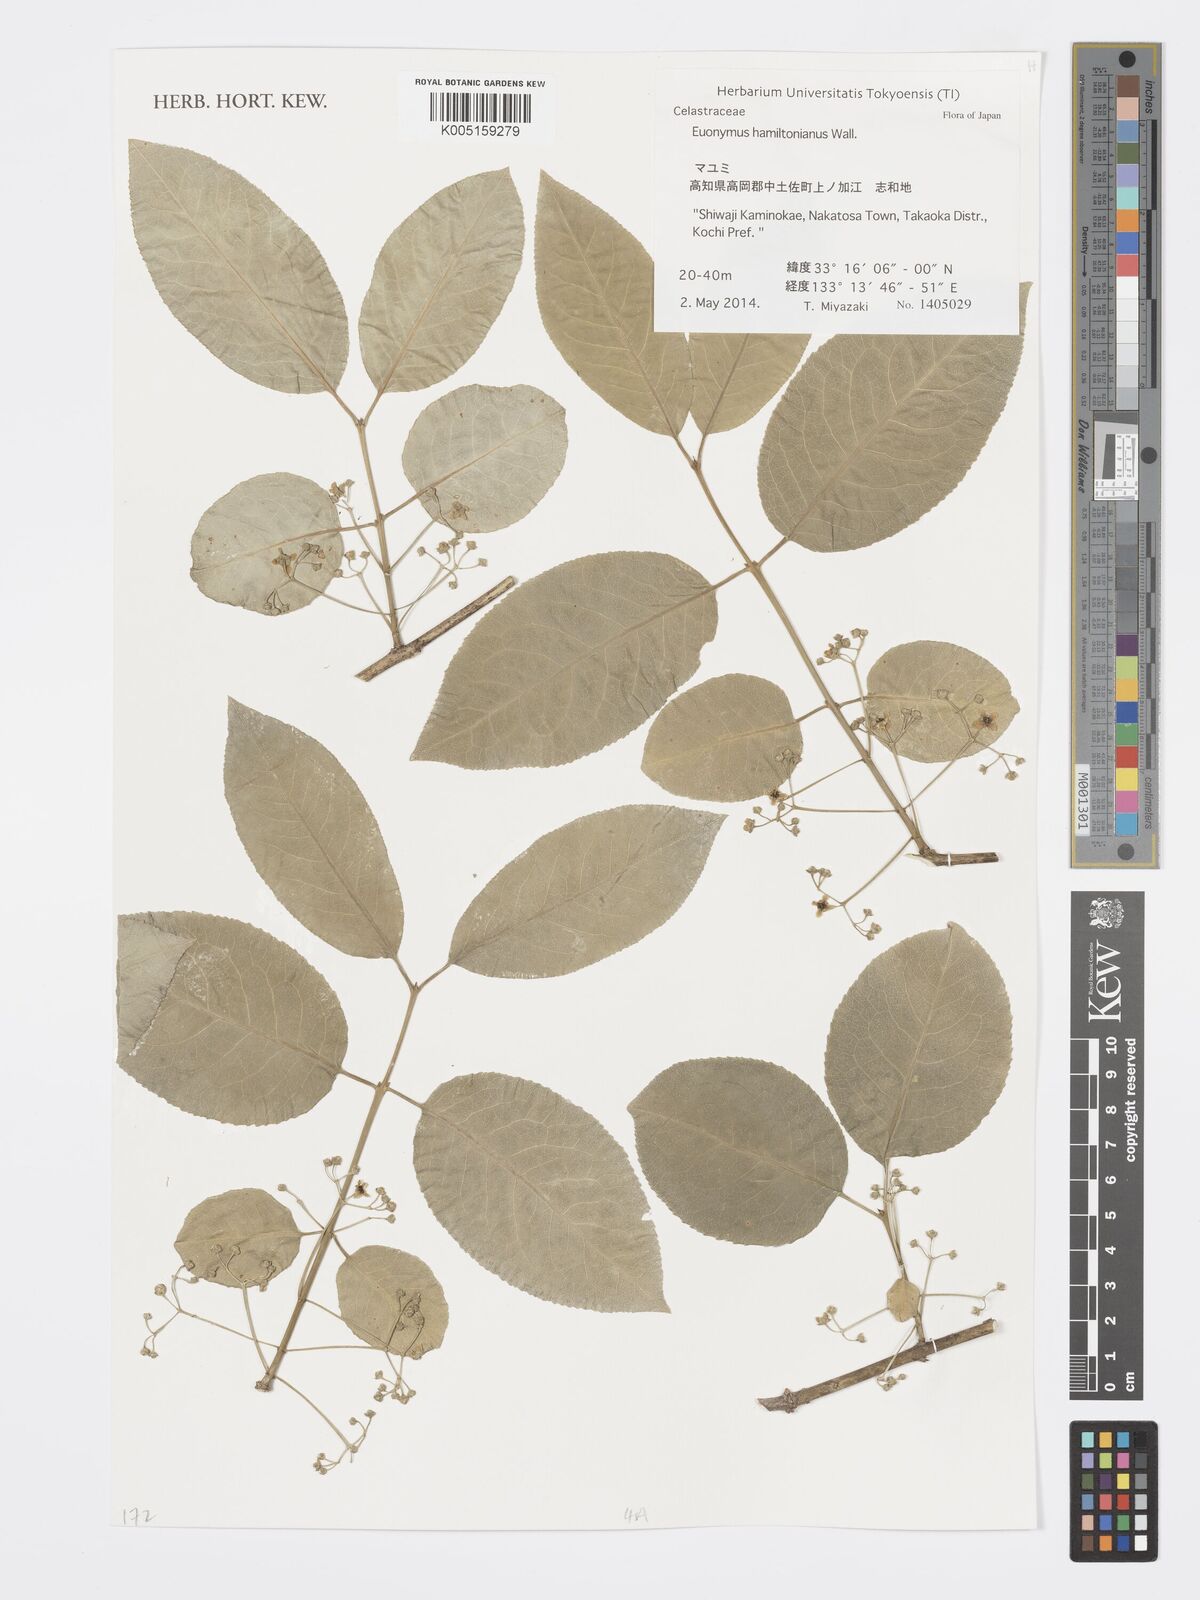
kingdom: Plantae
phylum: Tracheophyta
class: Magnoliopsida
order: Celastrales
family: Celastraceae
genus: Euonymus
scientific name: Euonymus hamiltonianus
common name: Hamilton's spindletree
